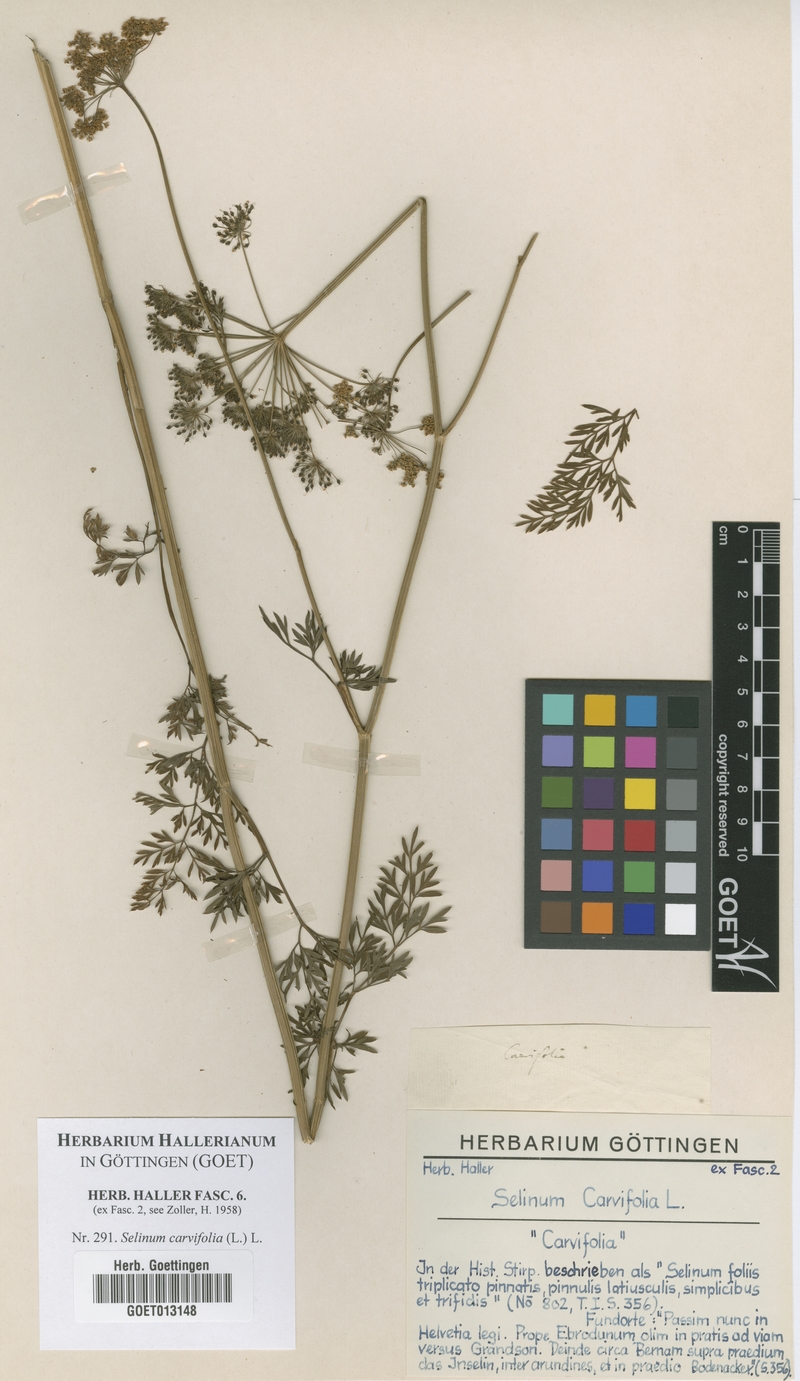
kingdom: Plantae
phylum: Tracheophyta
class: Magnoliopsida
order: Apiales
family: Apiaceae
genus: Selinum
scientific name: Selinum carvifolia
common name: Cambridge milk-parsley
